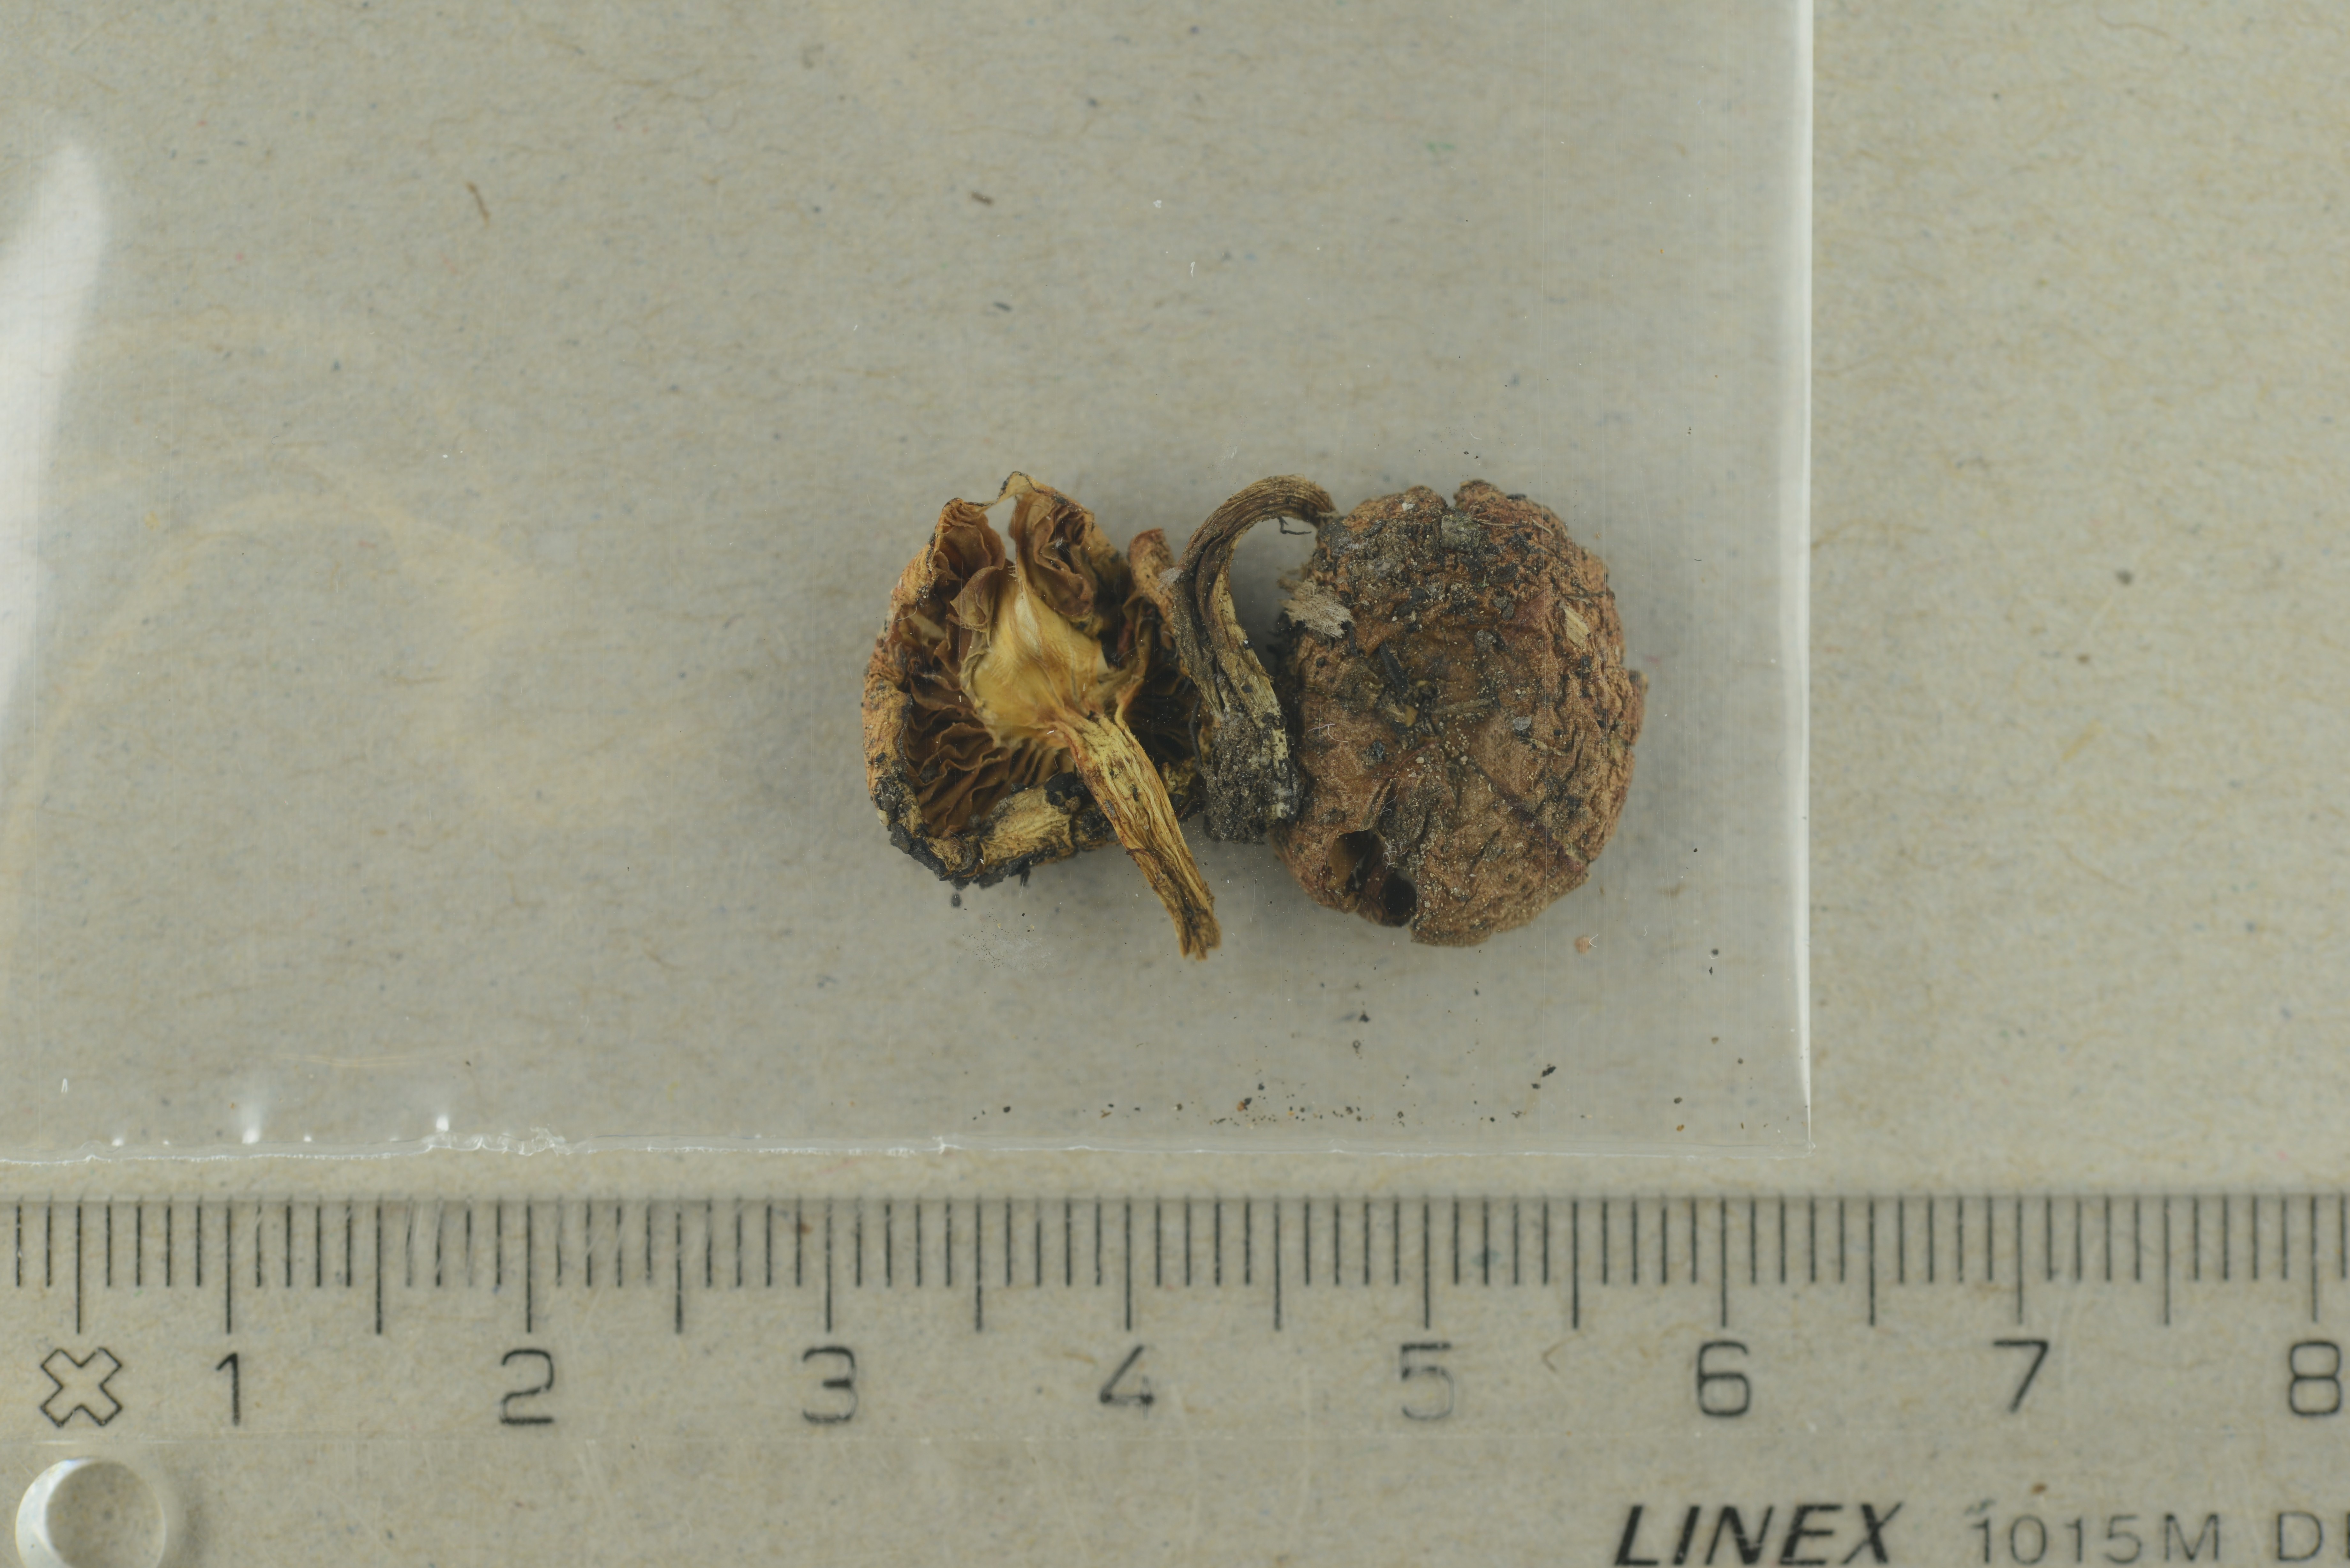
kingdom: Fungi
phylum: Basidiomycota
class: Agaricomycetes
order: Agaricales
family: Strophariaceae
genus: Pholiota
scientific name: Pholiota carbonaria
